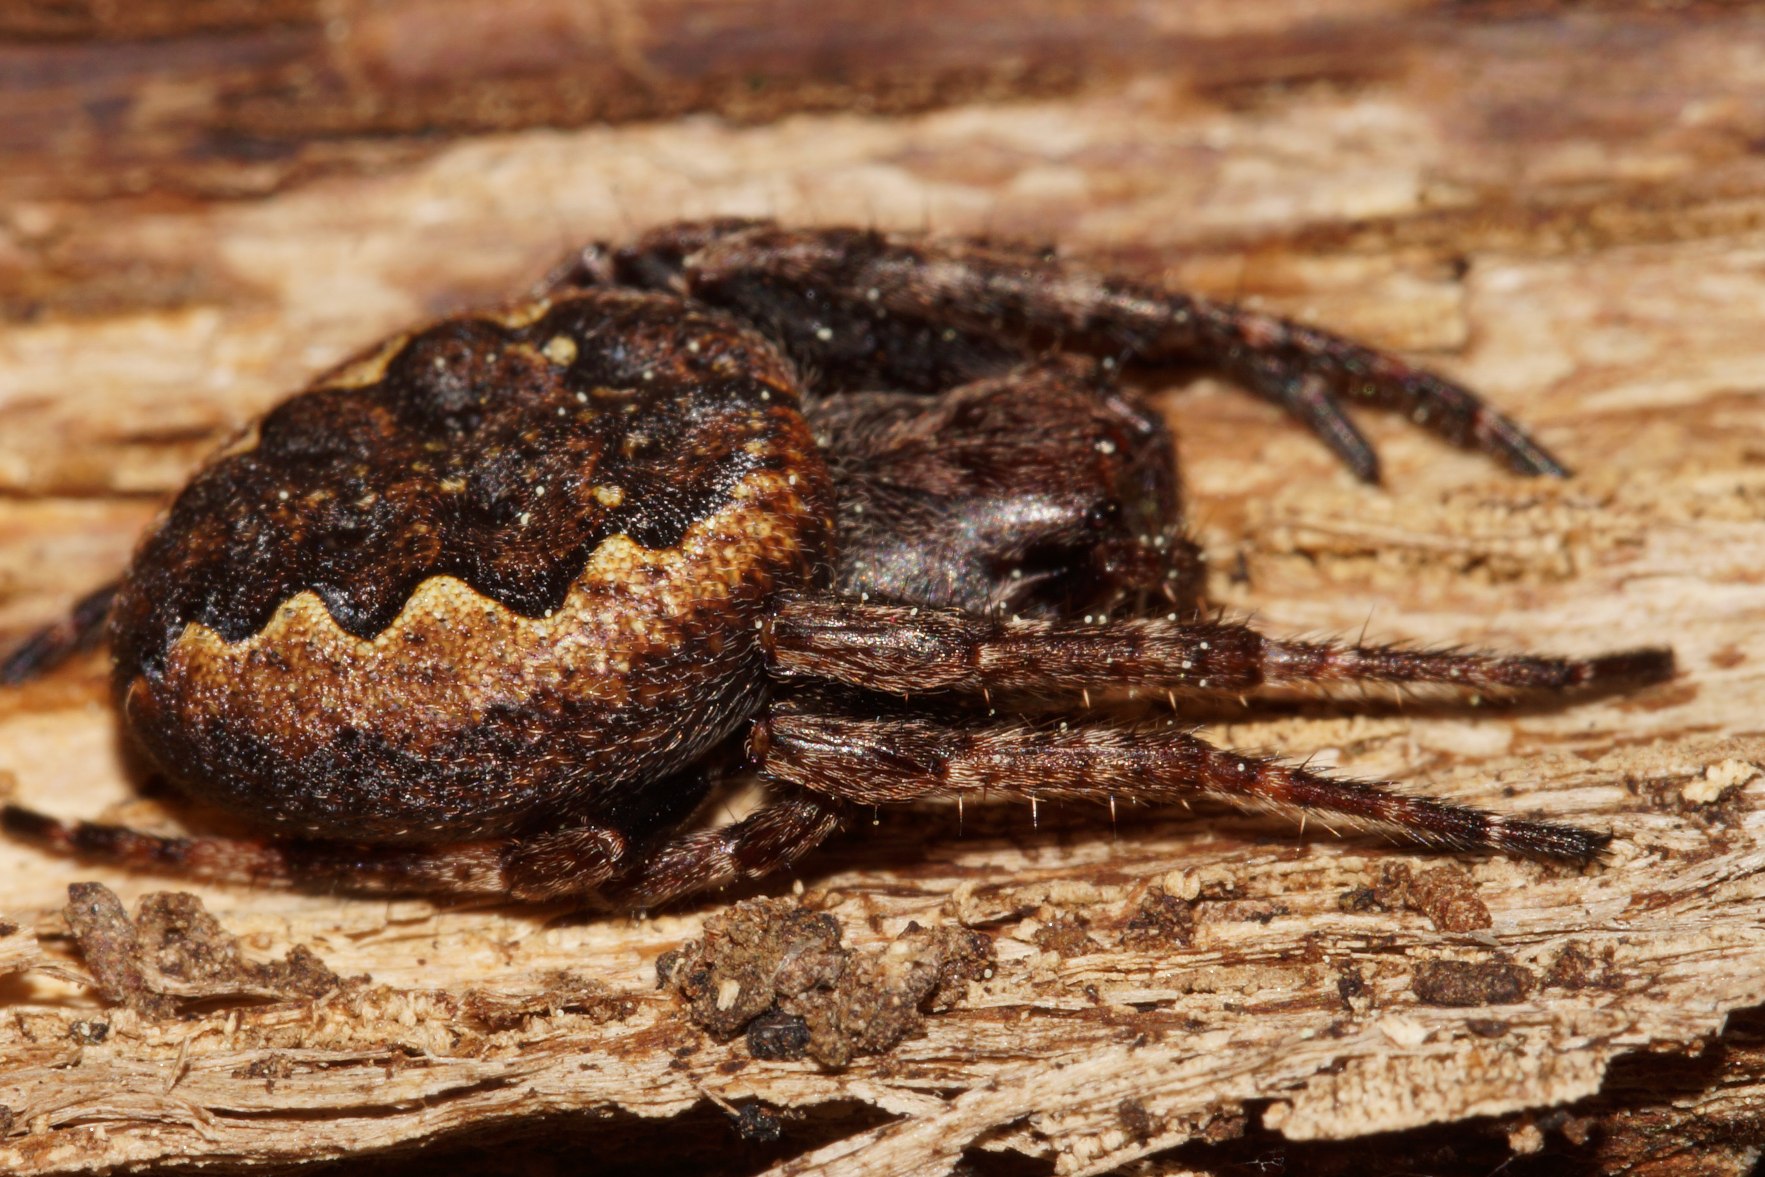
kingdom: Animalia
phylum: Arthropoda
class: Arachnida
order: Araneae
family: Araneidae
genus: Nuctenea
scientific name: Nuctenea umbratica
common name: Flad hjulspinder
